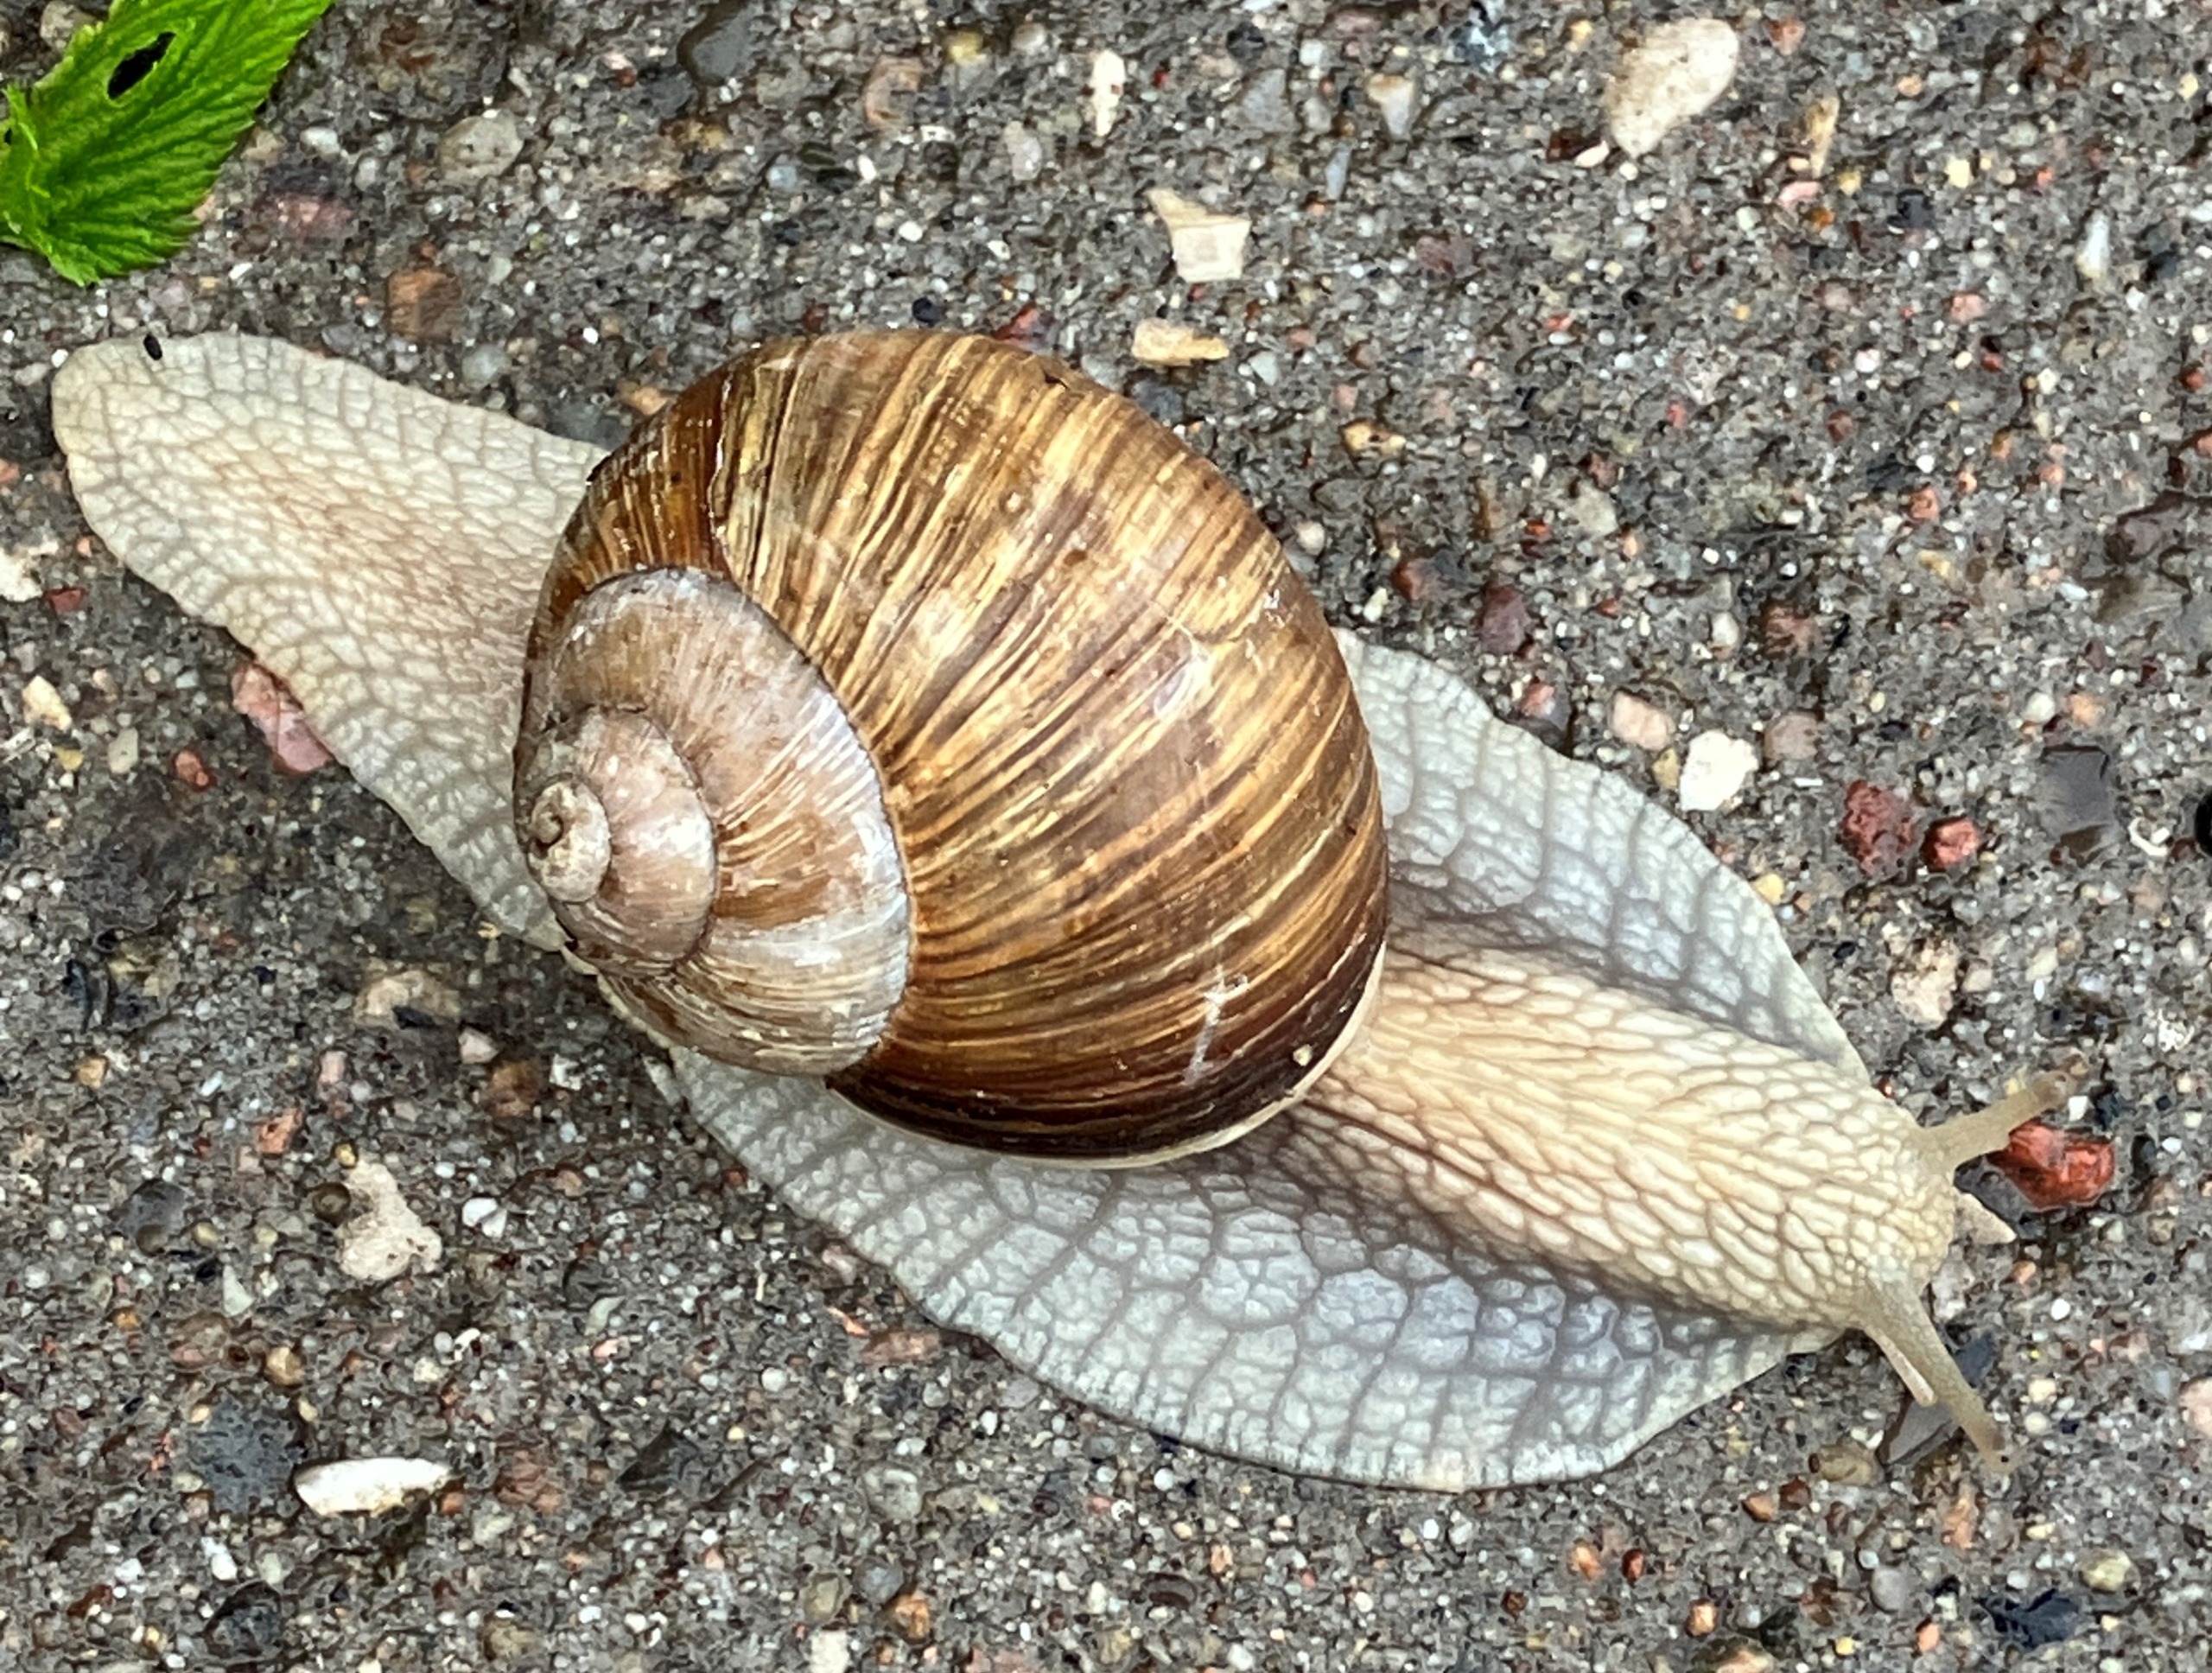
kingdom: Animalia
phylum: Mollusca
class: Gastropoda
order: Stylommatophora
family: Helicidae
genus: Helix
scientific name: Helix pomatia
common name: Vinbjergsnegl
